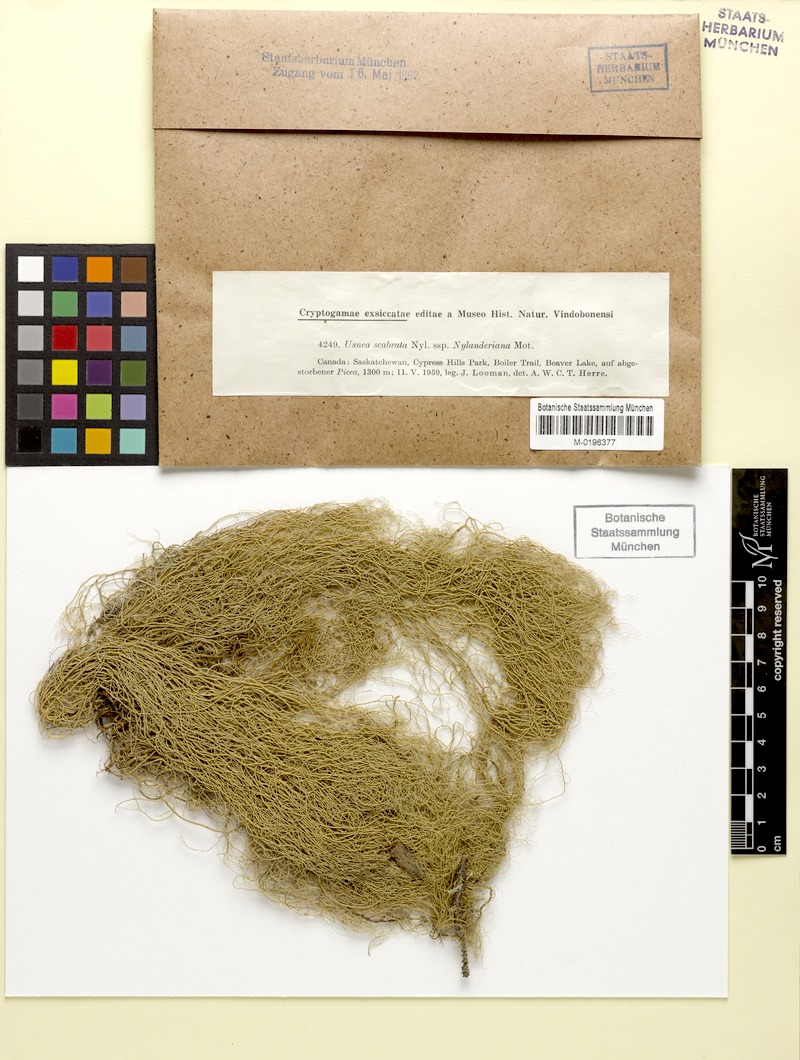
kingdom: Fungi
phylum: Ascomycota
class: Lecanoromycetes
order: Lecanorales
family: Parmeliaceae
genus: Usnea
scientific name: Usnea barbata
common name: Old man's beard lichen
